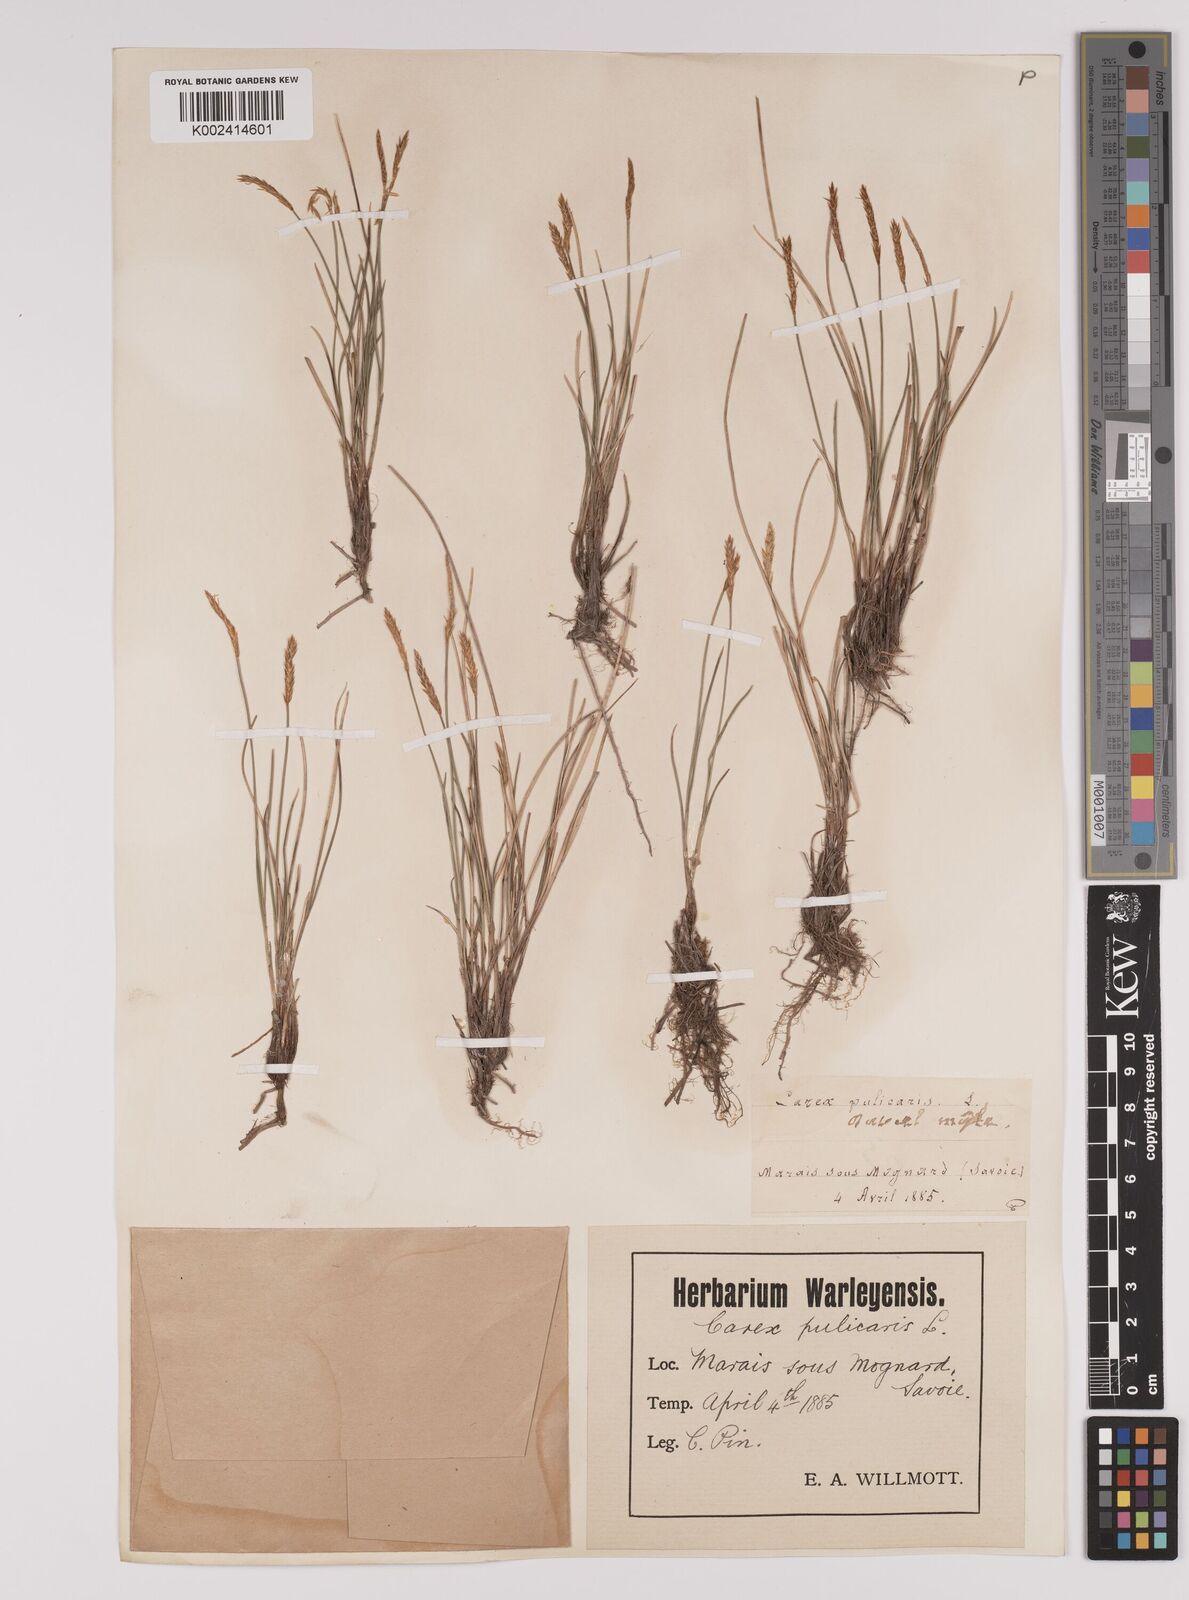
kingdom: Plantae
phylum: Tracheophyta
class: Liliopsida
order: Poales
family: Cyperaceae
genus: Carex
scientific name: Carex davalliana
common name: Davall's sedge
